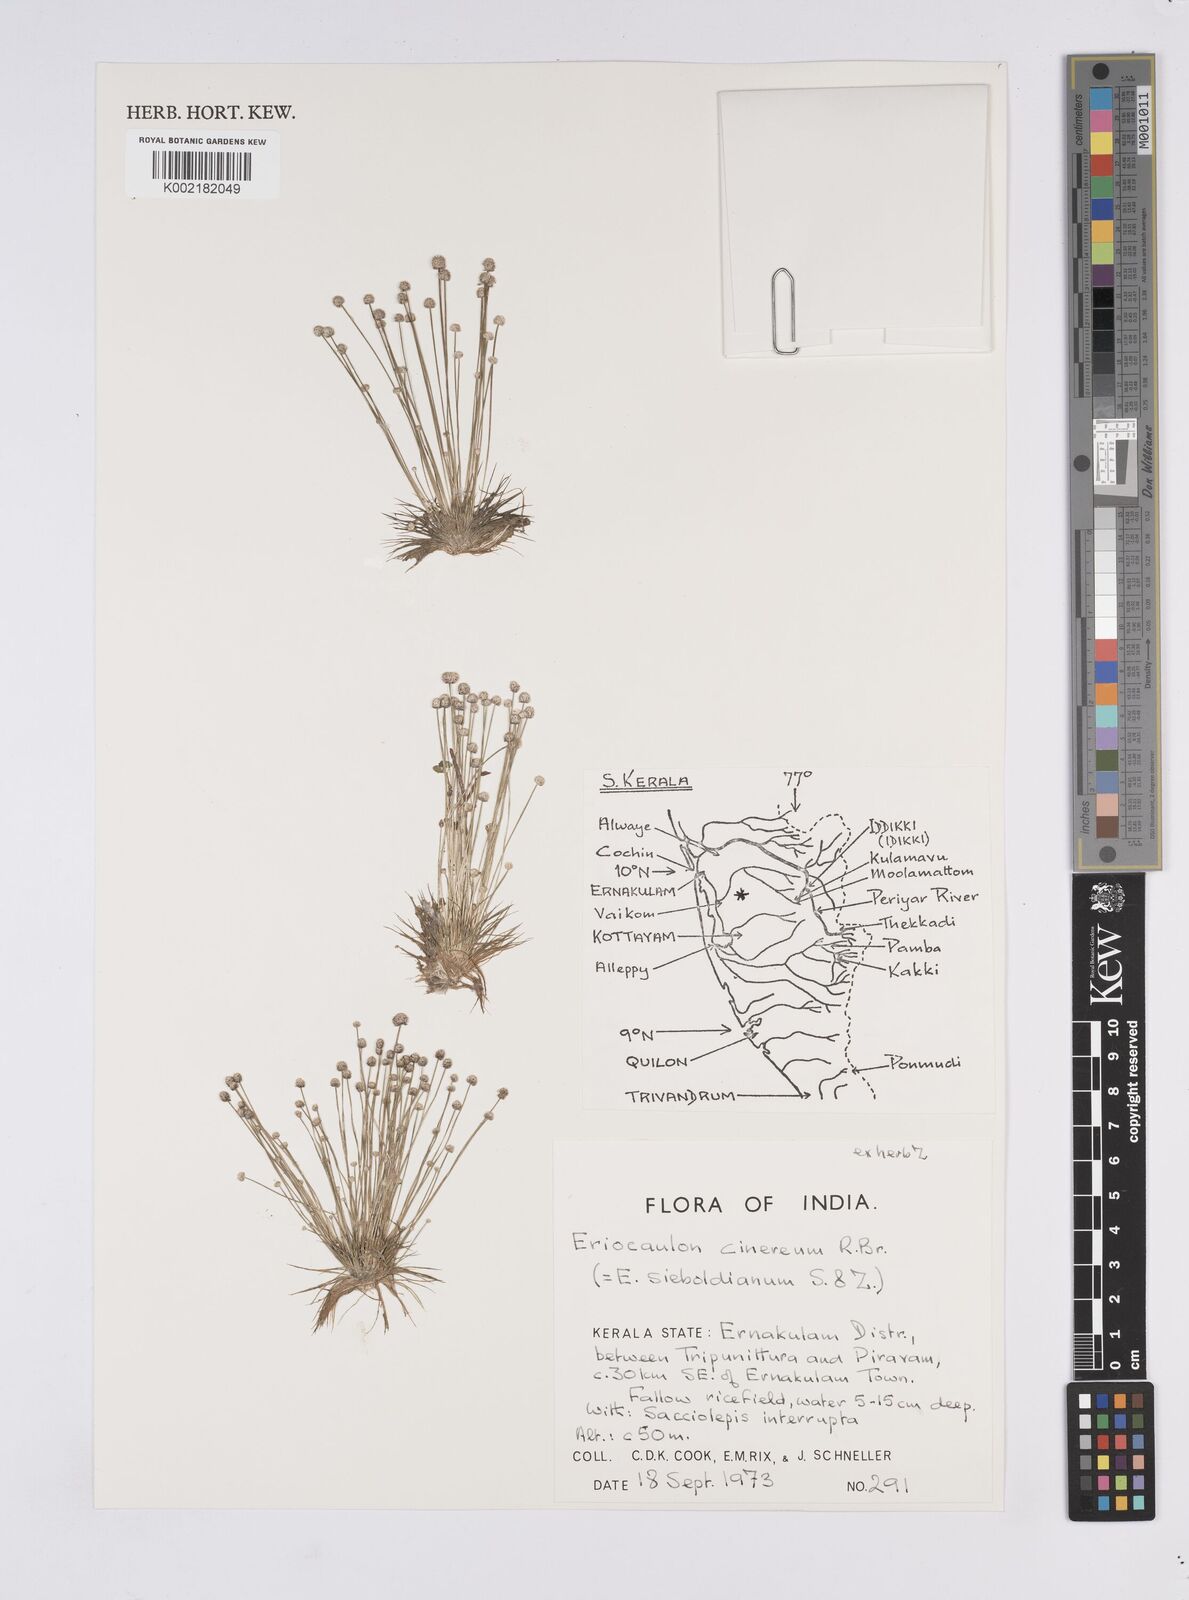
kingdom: Plantae
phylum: Tracheophyta
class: Liliopsida
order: Poales
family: Eriocaulaceae
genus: Eriocaulon
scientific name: Eriocaulon cinereum
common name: Ashy pipewort
